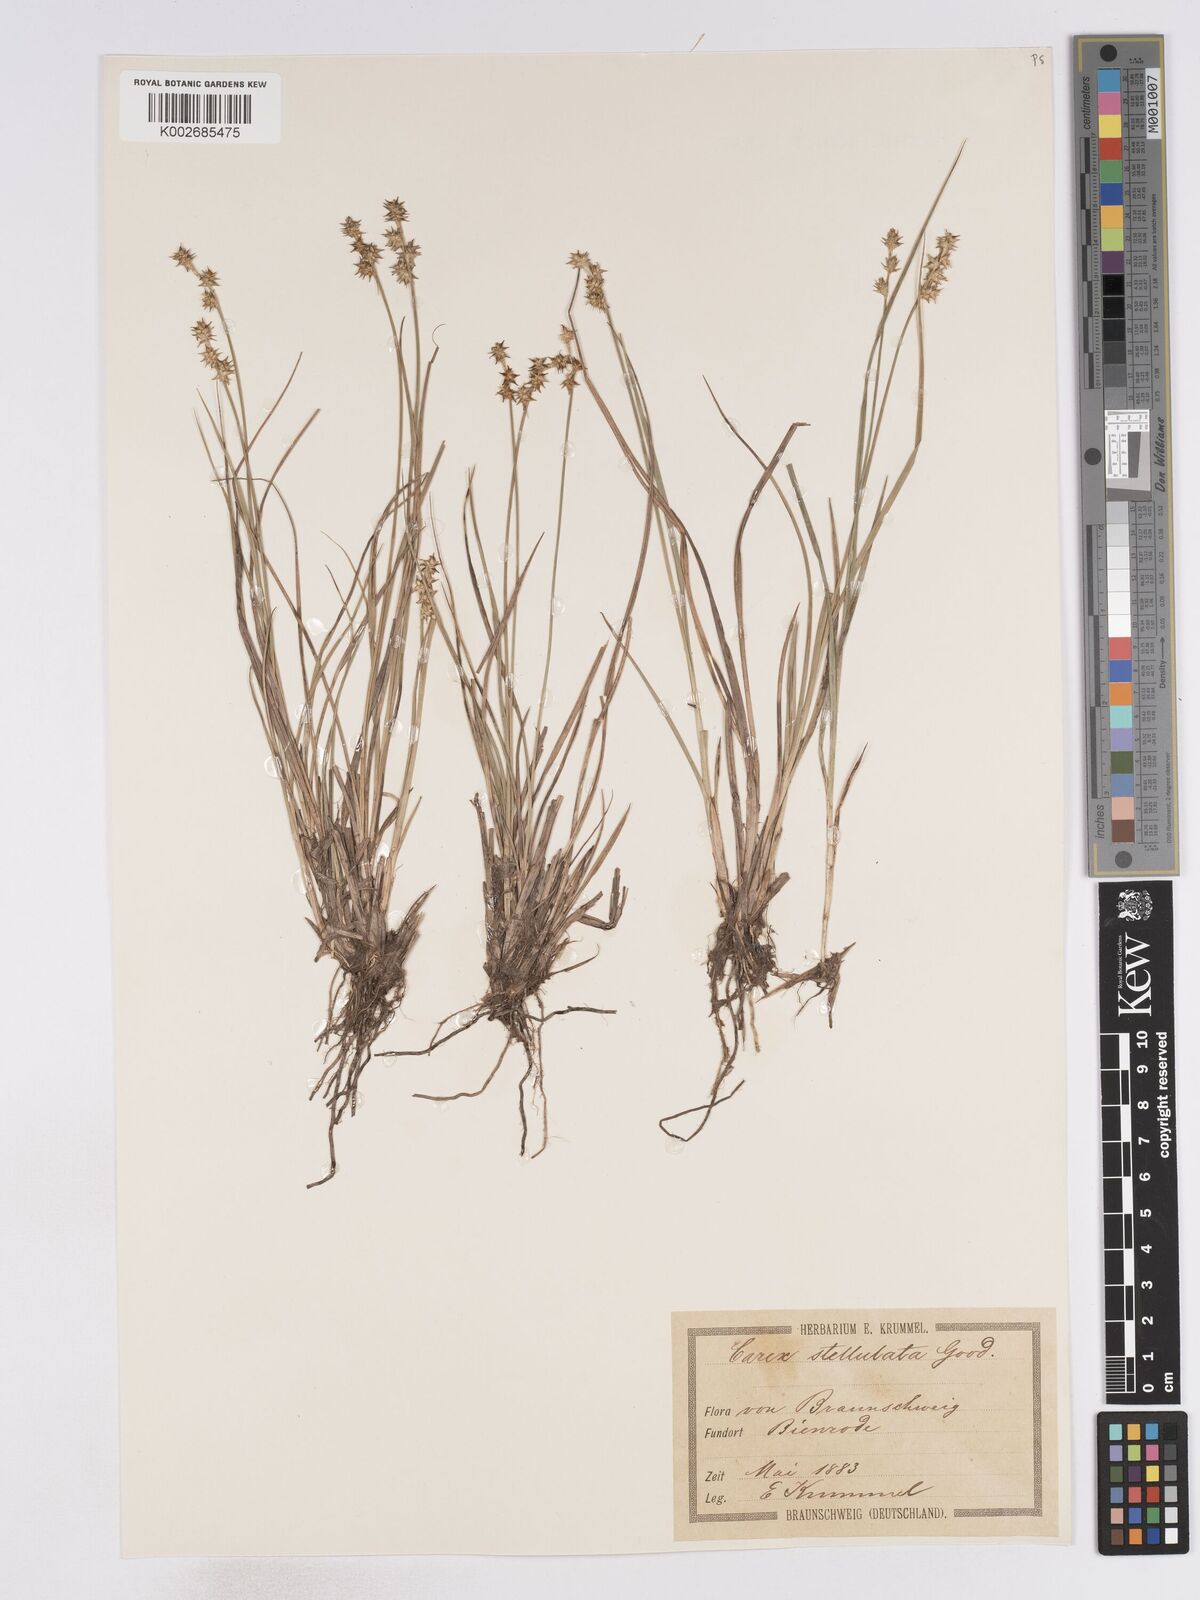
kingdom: Plantae
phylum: Tracheophyta
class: Liliopsida
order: Poales
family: Cyperaceae
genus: Carex
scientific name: Carex echinata
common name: Star sedge
